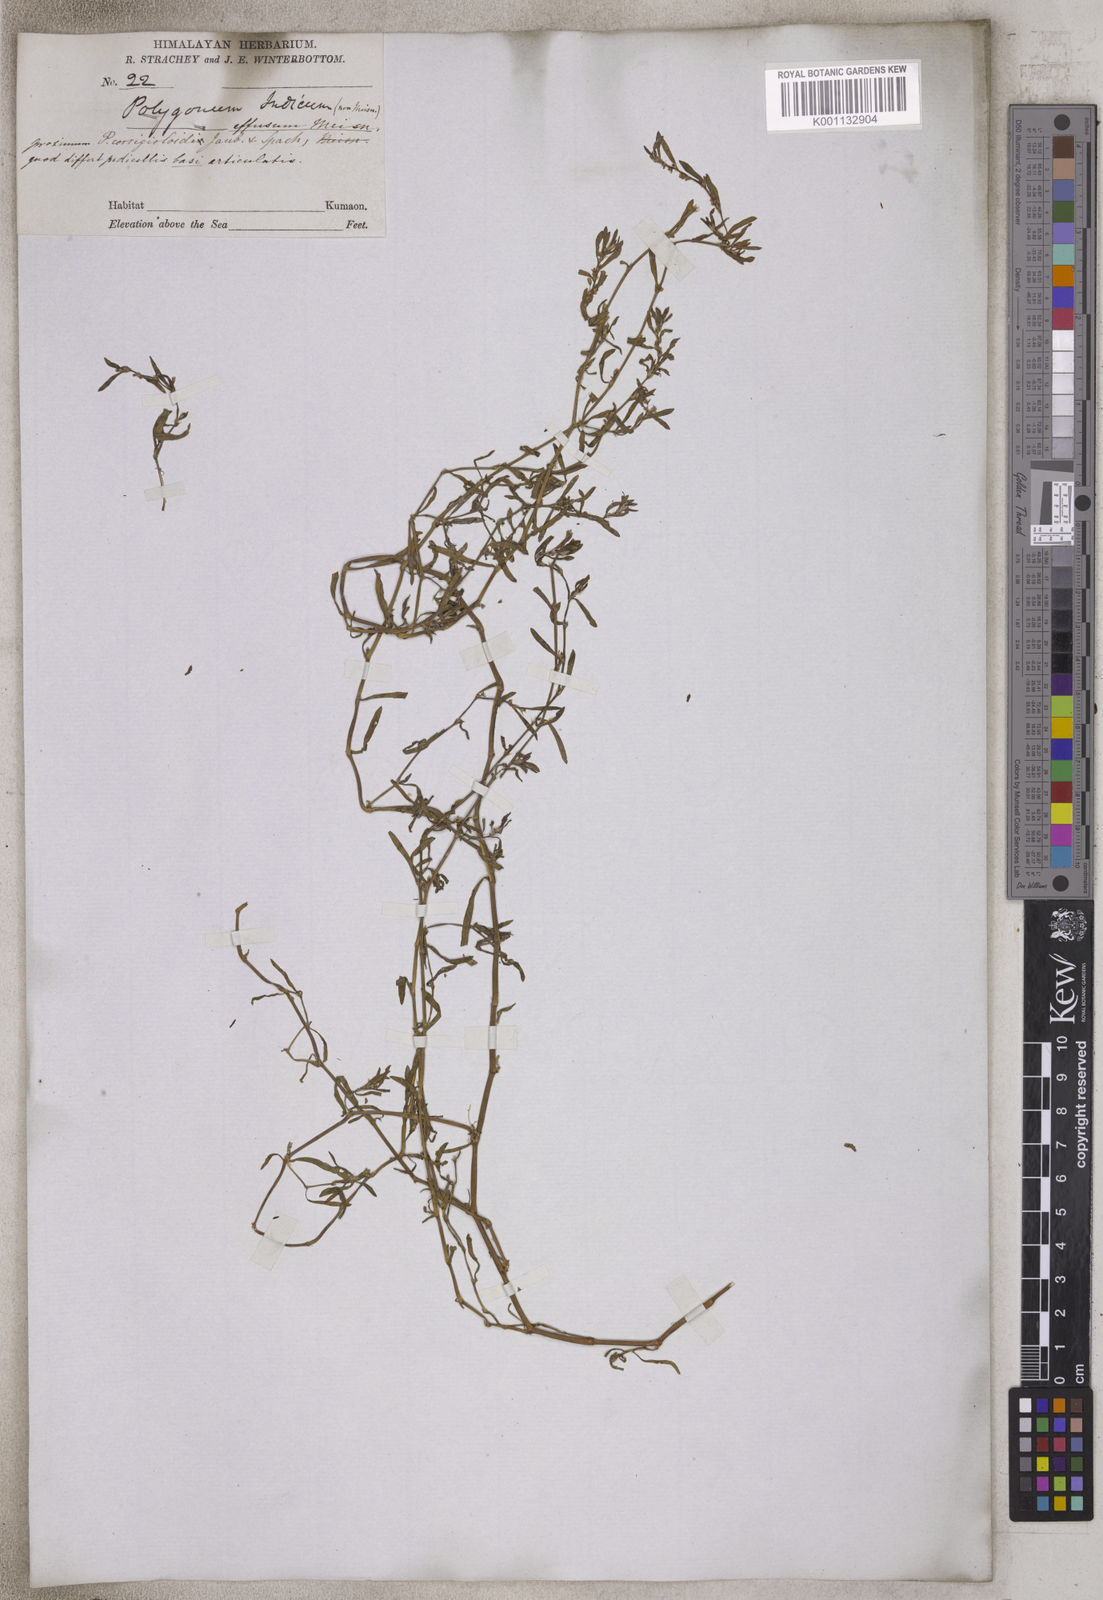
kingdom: Plantae
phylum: Tracheophyta
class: Magnoliopsida
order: Caryophyllales
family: Polygonaceae
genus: Polygonum
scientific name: Polygonum indicum
